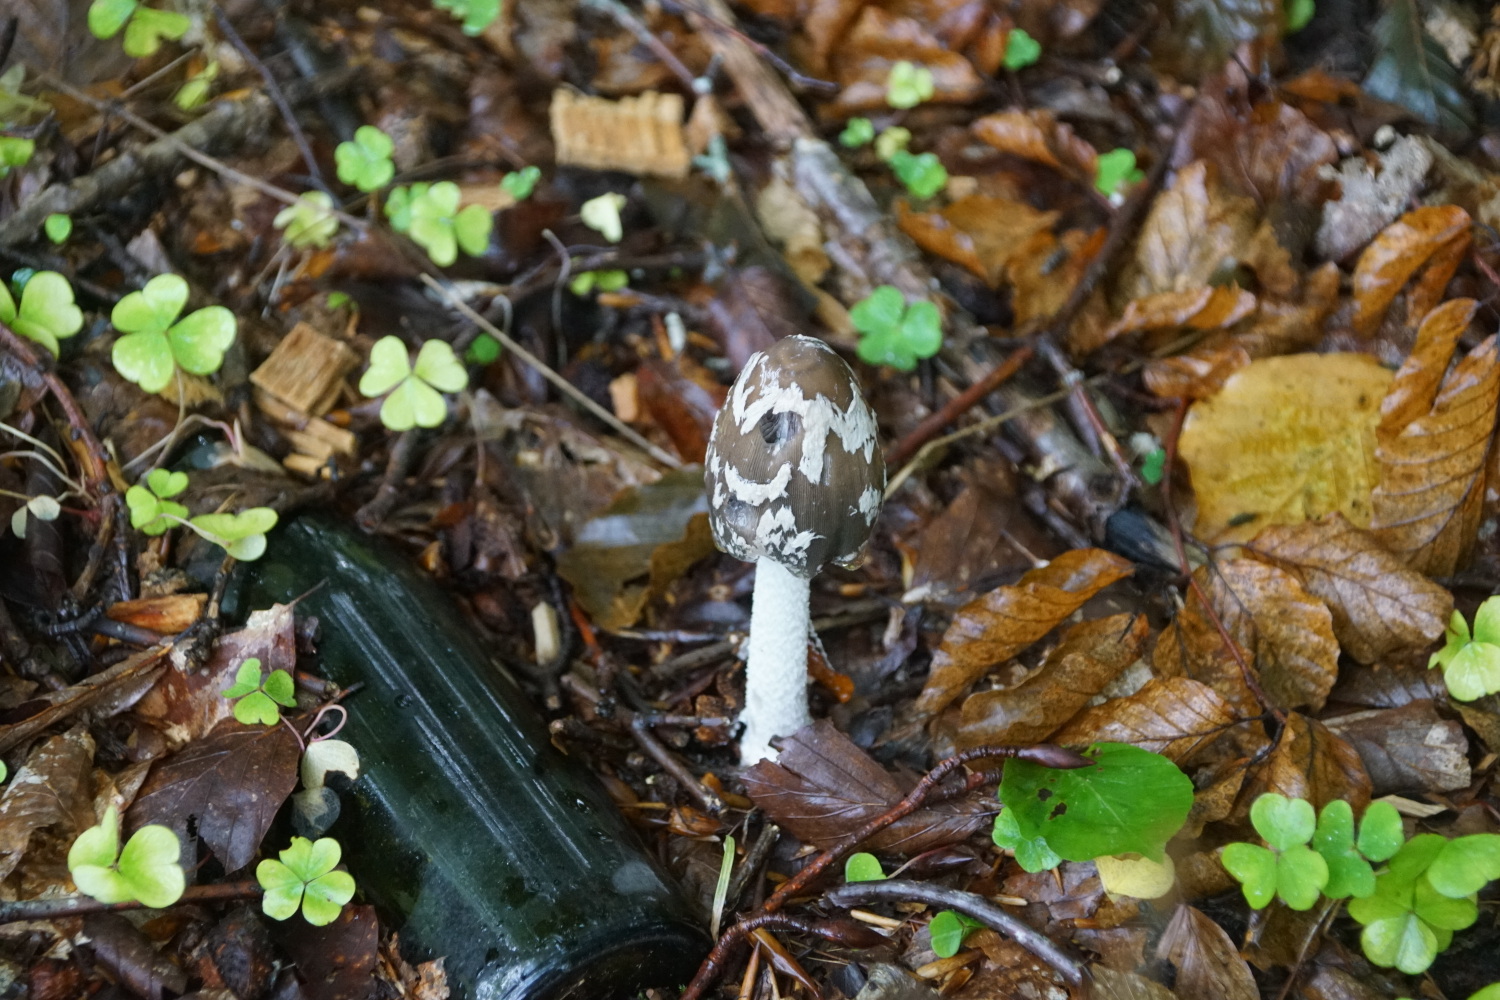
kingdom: Fungi
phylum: Basidiomycota
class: Agaricomycetes
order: Agaricales
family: Psathyrellaceae
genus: Coprinopsis
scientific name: Coprinopsis picacea
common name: skade-blækhat
